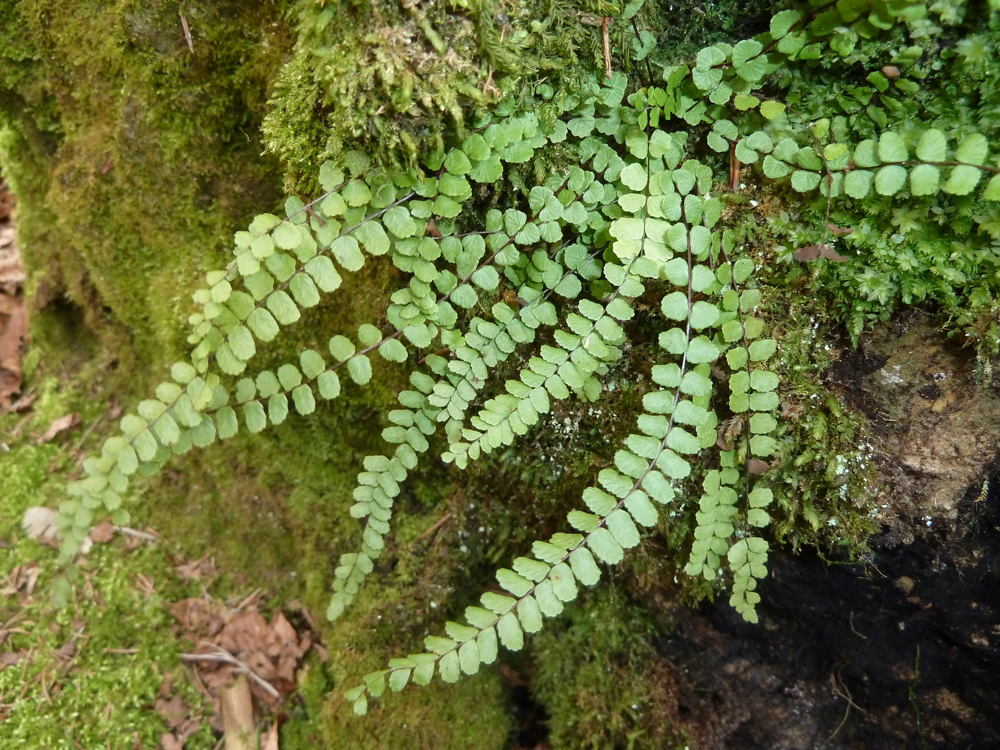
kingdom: Plantae
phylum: Tracheophyta
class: Polypodiopsida
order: Polypodiales
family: Aspleniaceae
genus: Asplenium
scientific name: Asplenium trichomanes
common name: Maidenhair spleenwort
